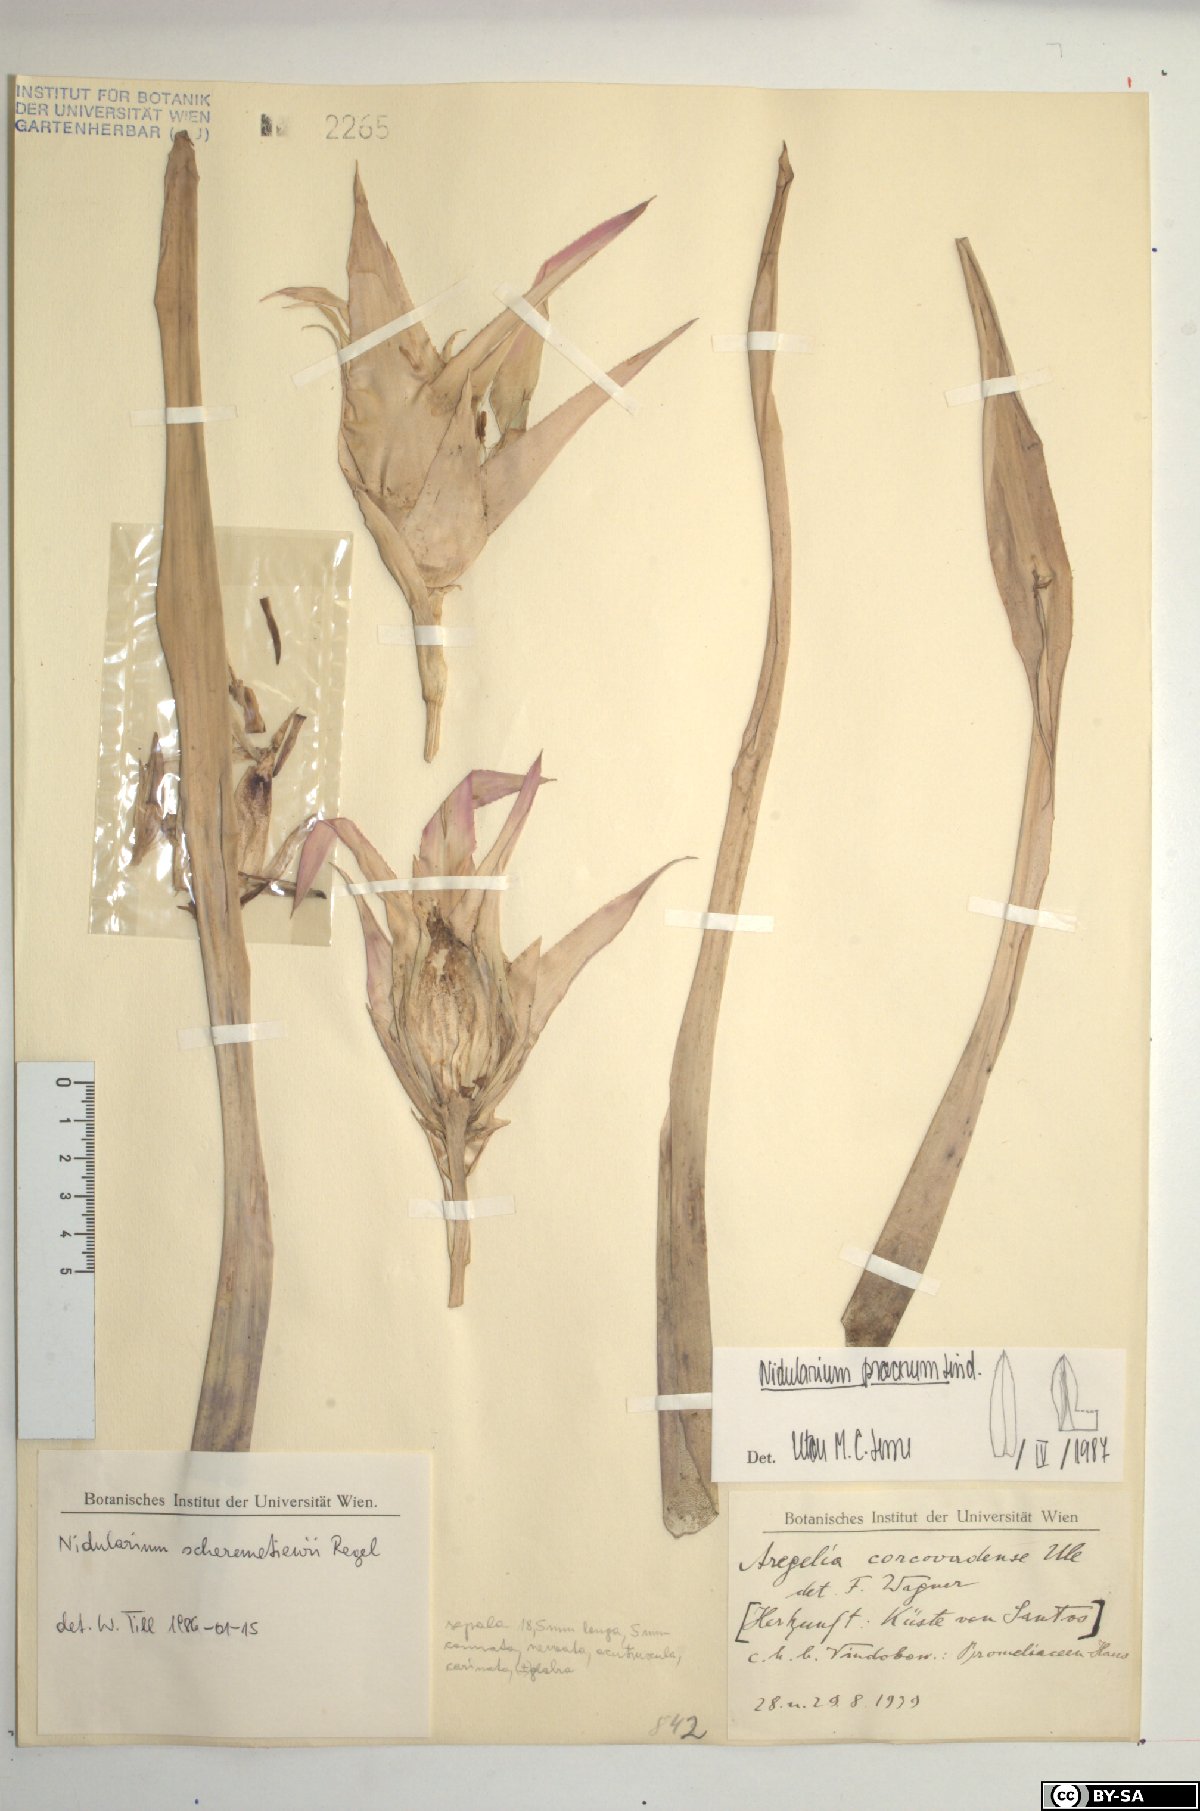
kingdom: Plantae
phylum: Tracheophyta
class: Liliopsida
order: Poales
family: Bromeliaceae
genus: Nidularium
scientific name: Nidularium procerum
